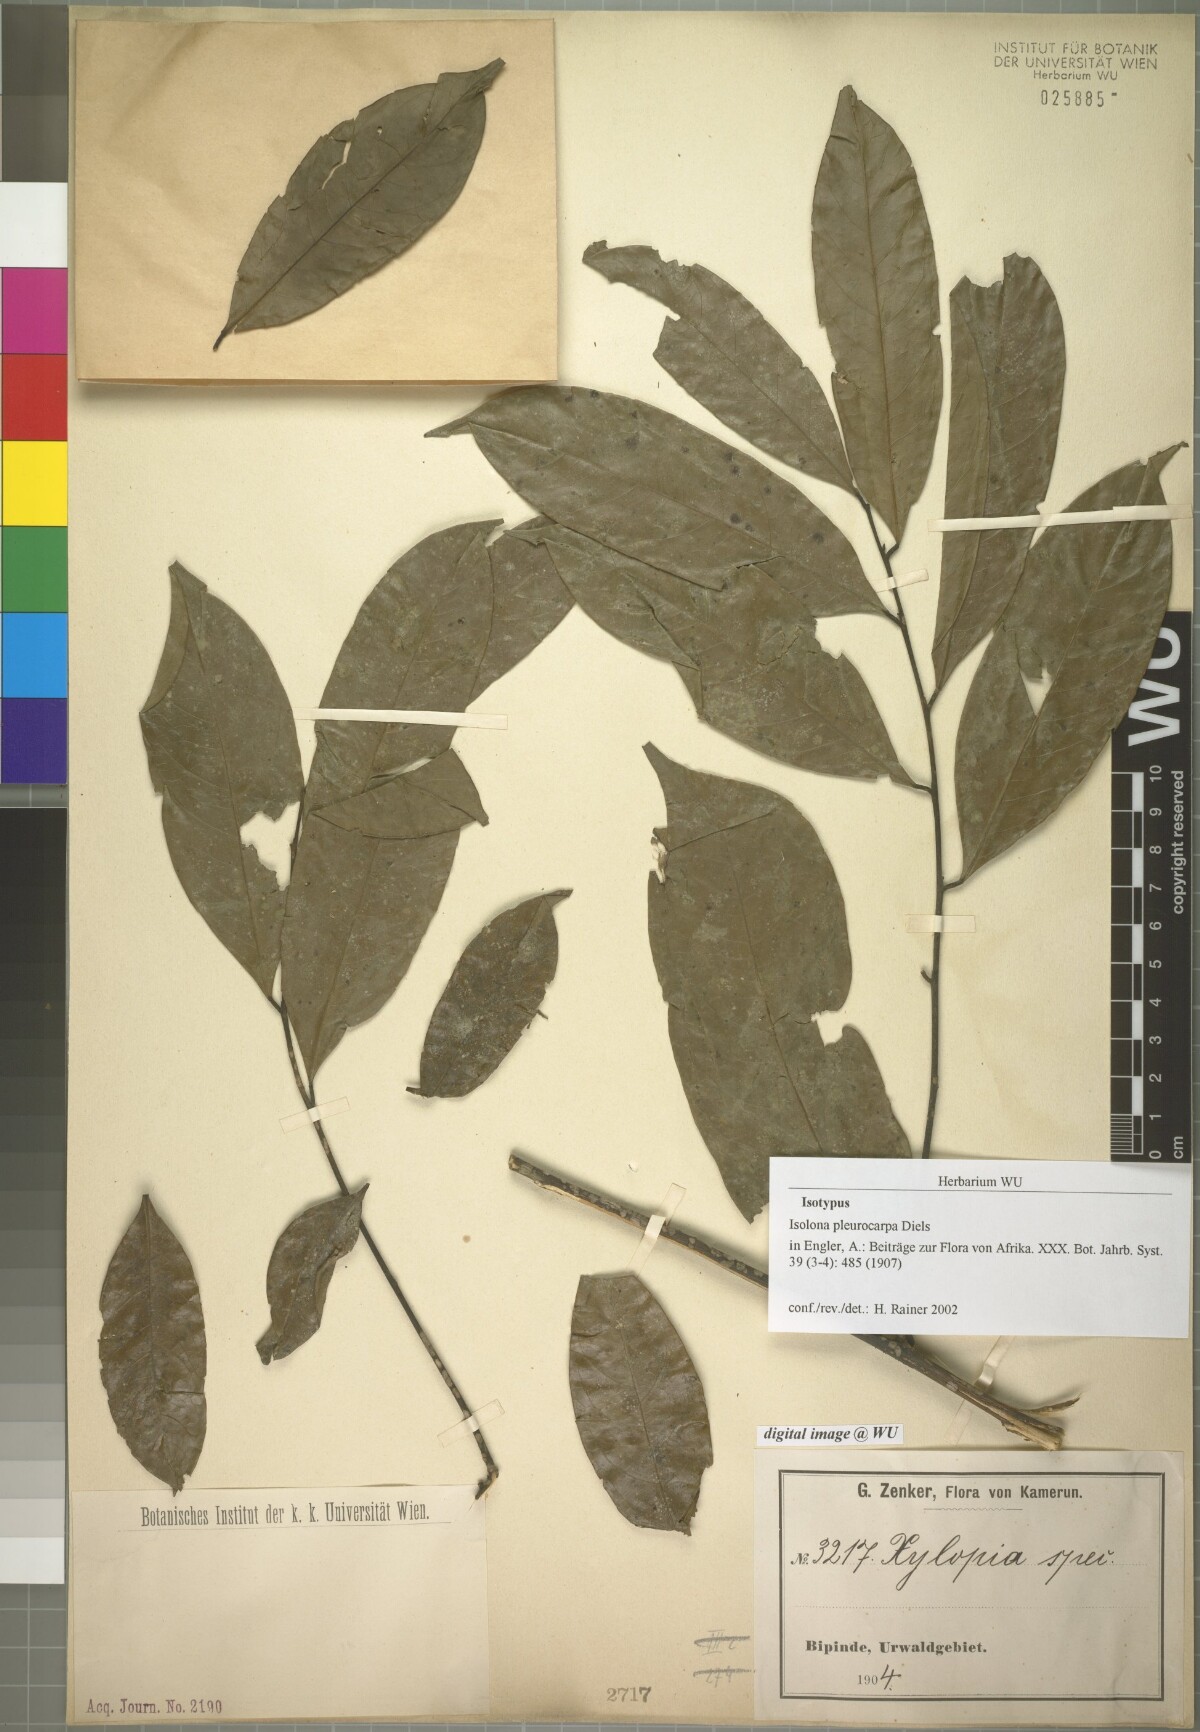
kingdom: Plantae
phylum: Tracheophyta
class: Magnoliopsida
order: Magnoliales
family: Annonaceae
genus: Isolona
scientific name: Isolona pleurocarpa
